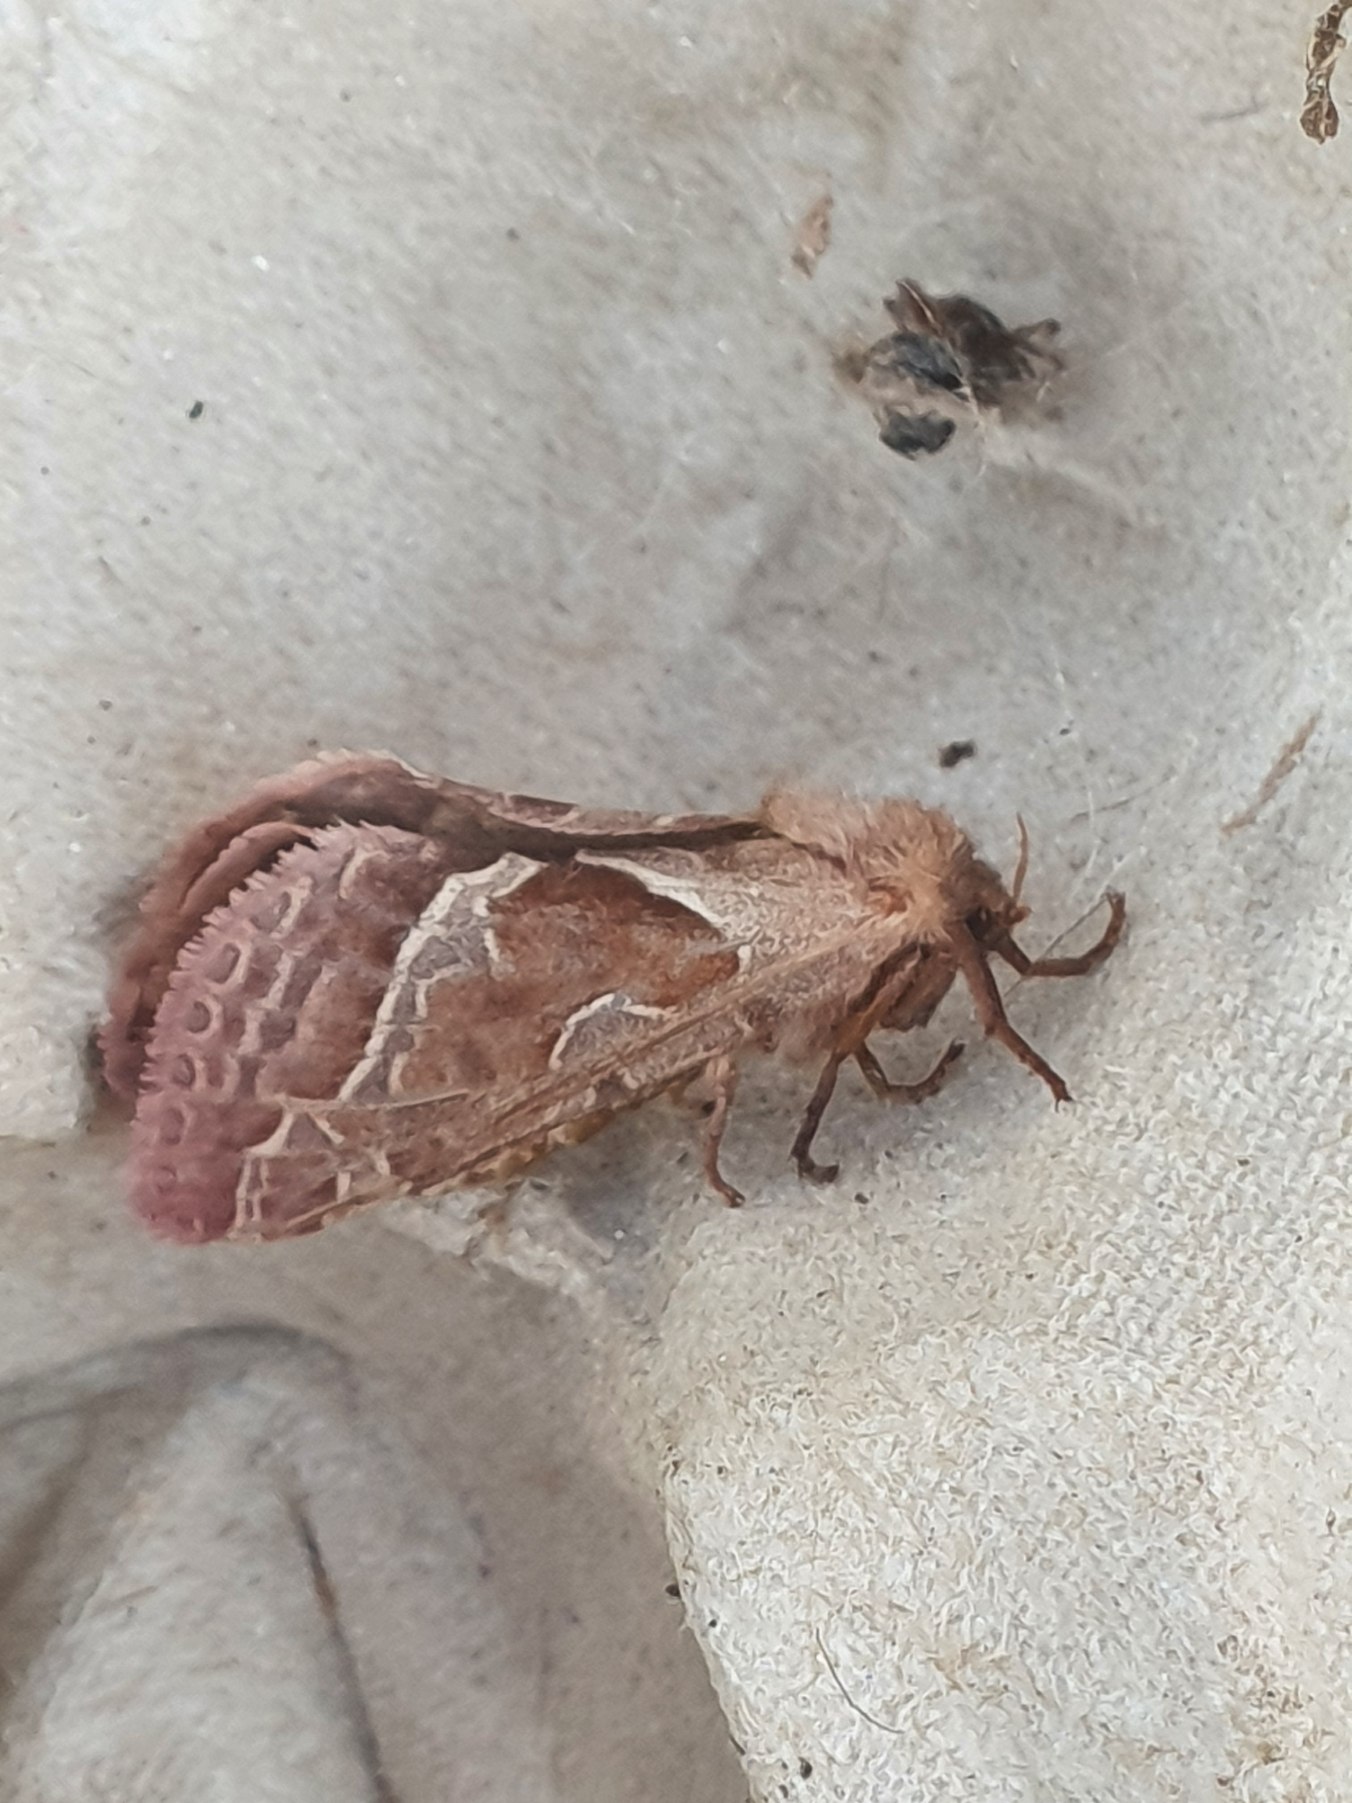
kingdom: Animalia
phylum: Arthropoda
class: Insecta
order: Lepidoptera
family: Hepialidae
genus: Triodia
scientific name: Triodia sylvina
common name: Skræpperodæder
